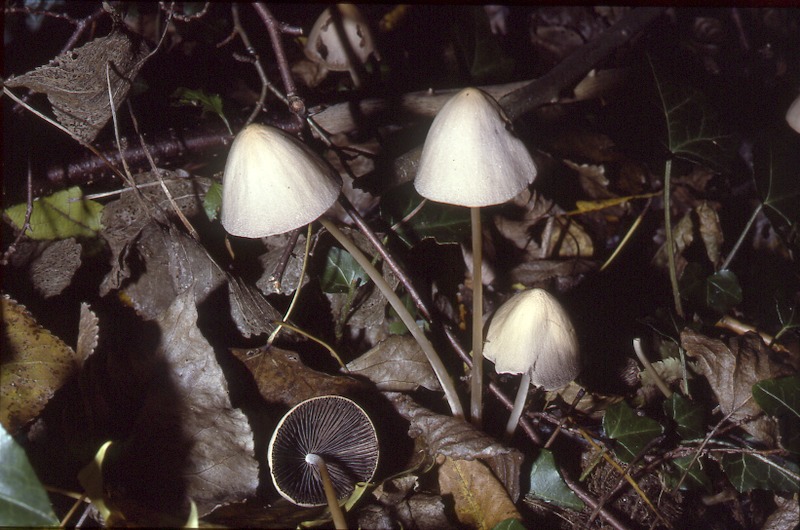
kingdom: Fungi
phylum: Basidiomycota
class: Agaricomycetes
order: Agaricales
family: Psathyrellaceae
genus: Parasola
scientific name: Parasola conopilea
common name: Conical brittlestem
